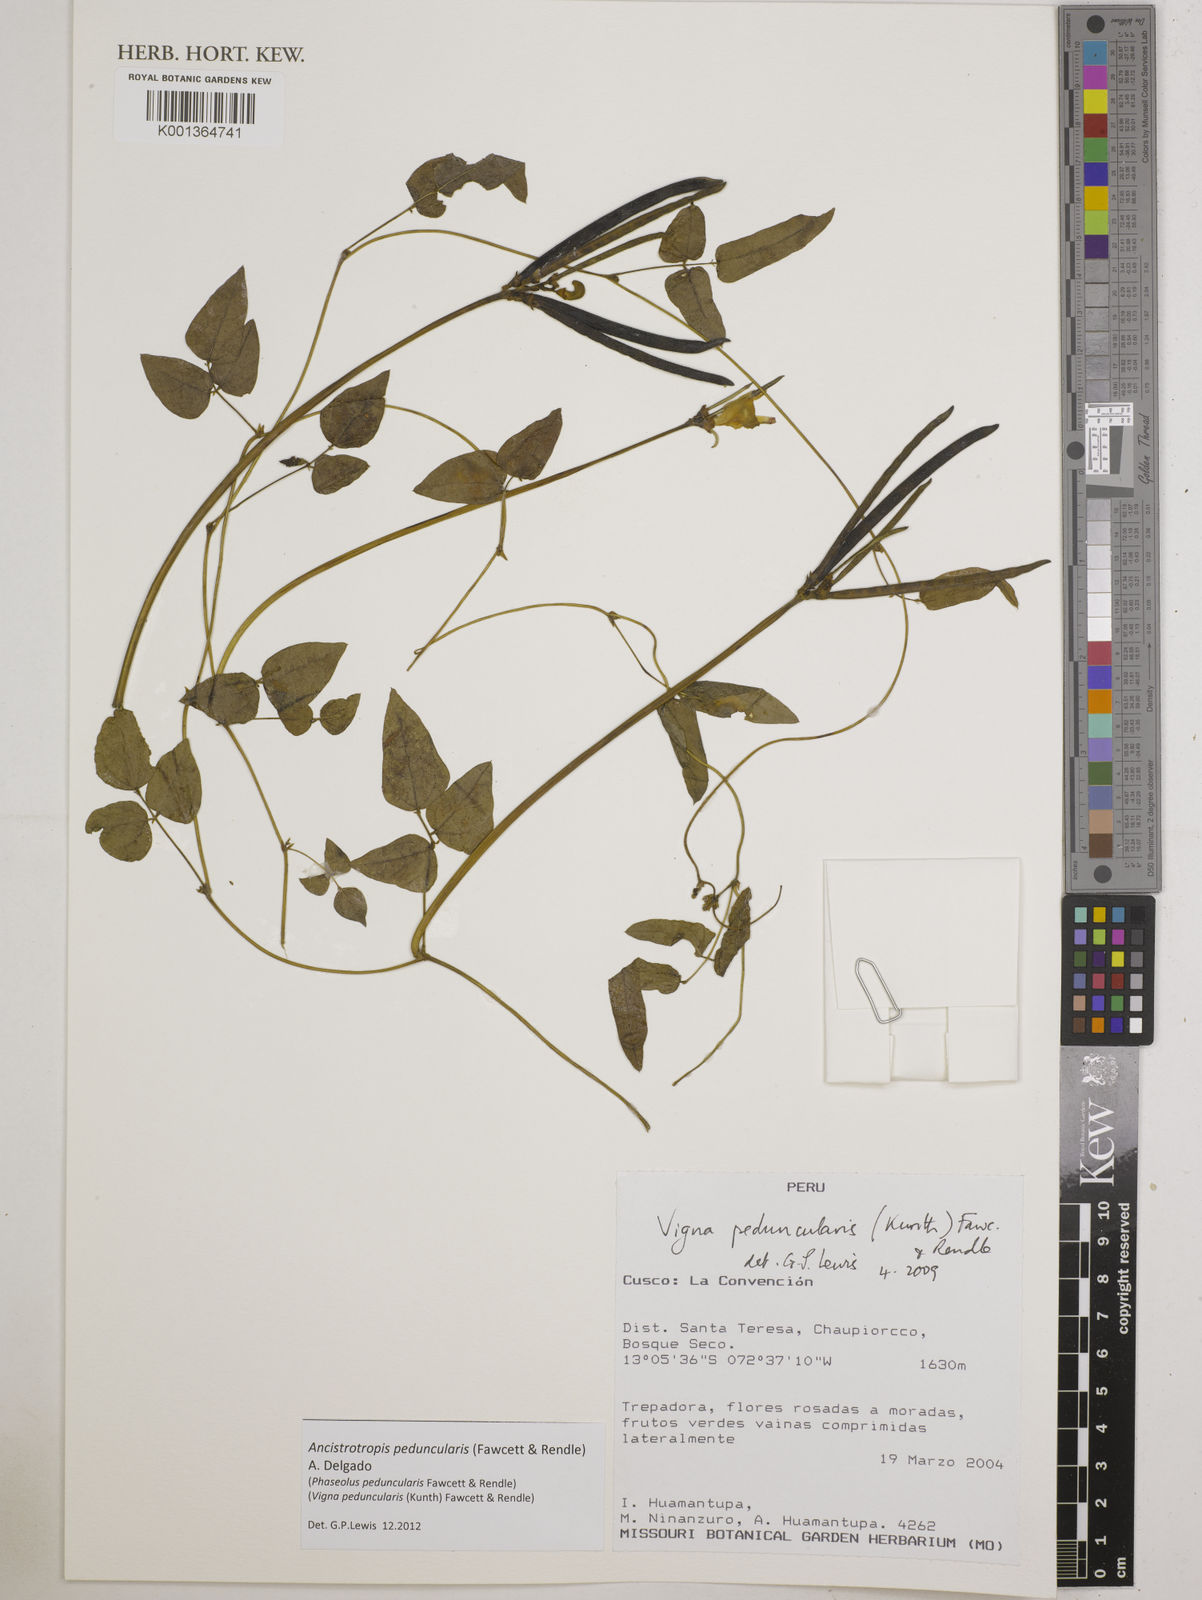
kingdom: Plantae
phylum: Tracheophyta
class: Magnoliopsida
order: Fabales
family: Fabaceae
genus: Ancistrotropis
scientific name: Ancistrotropis peduncularis
